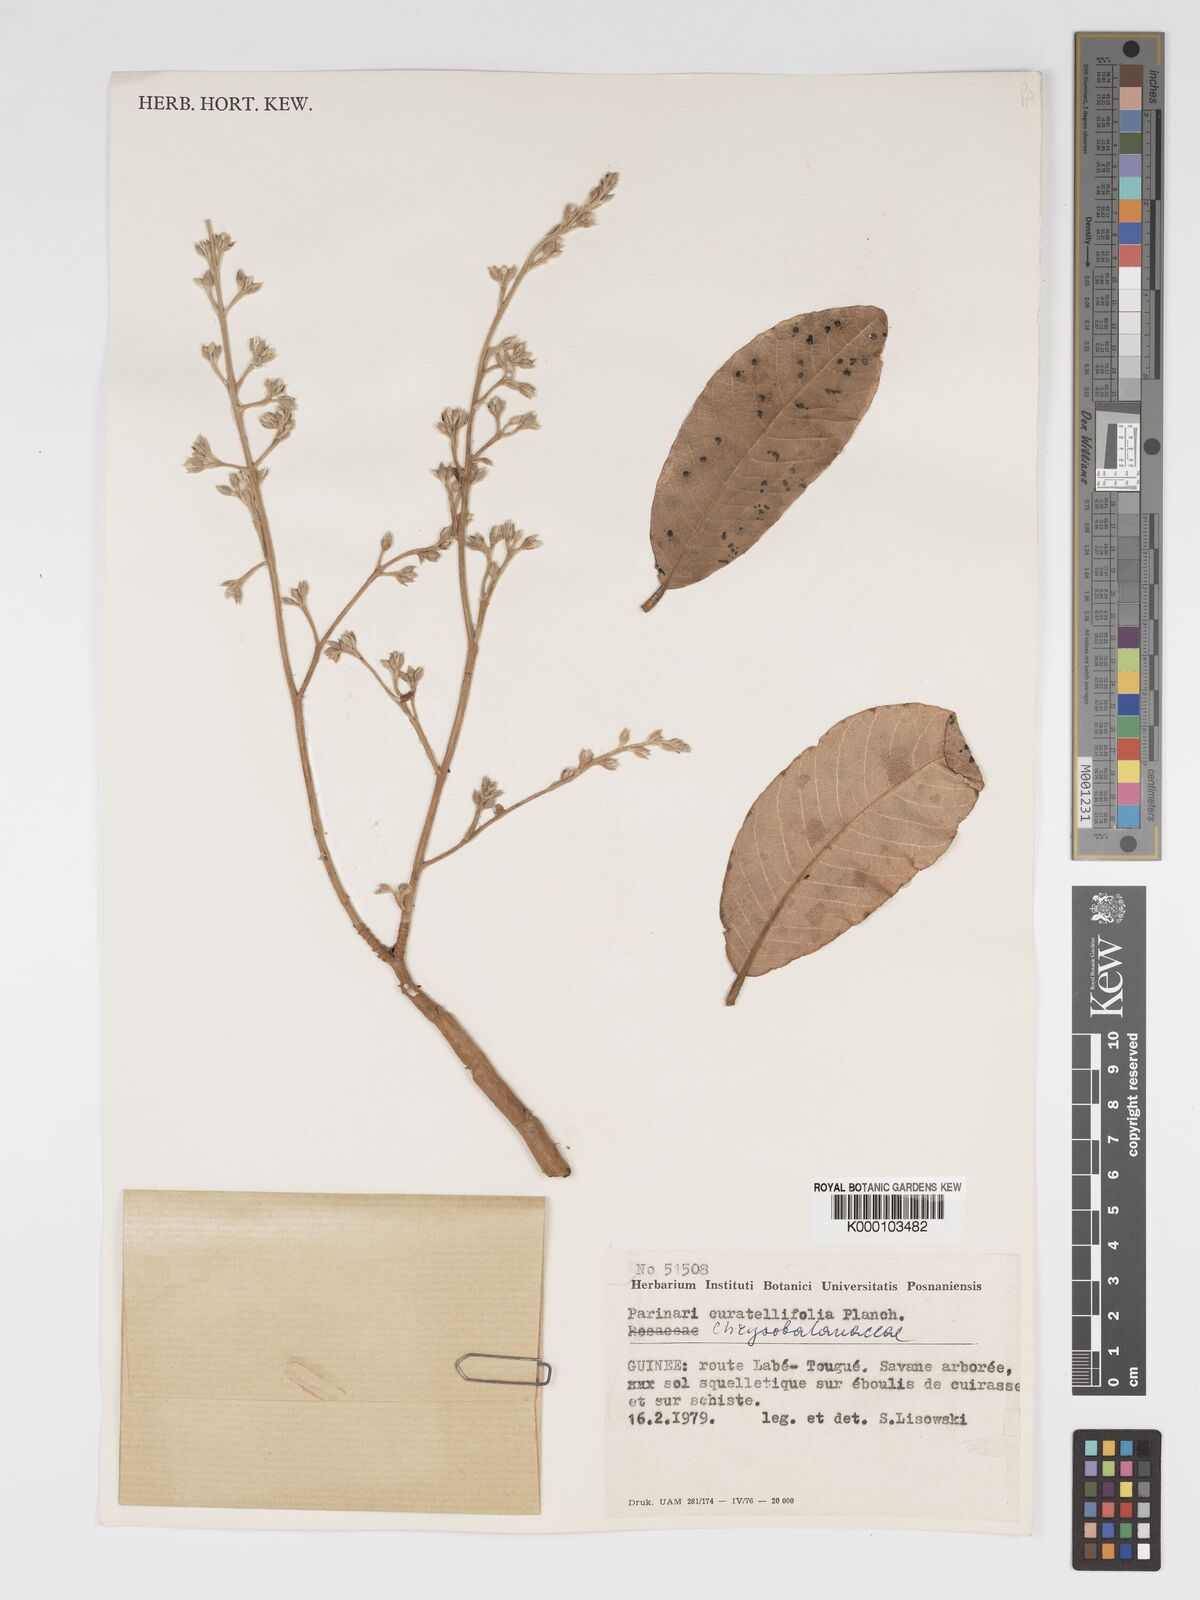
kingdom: Plantae
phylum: Tracheophyta
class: Magnoliopsida
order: Malpighiales
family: Chrysobalanaceae
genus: Parinari
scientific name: Parinari curatellifolia
